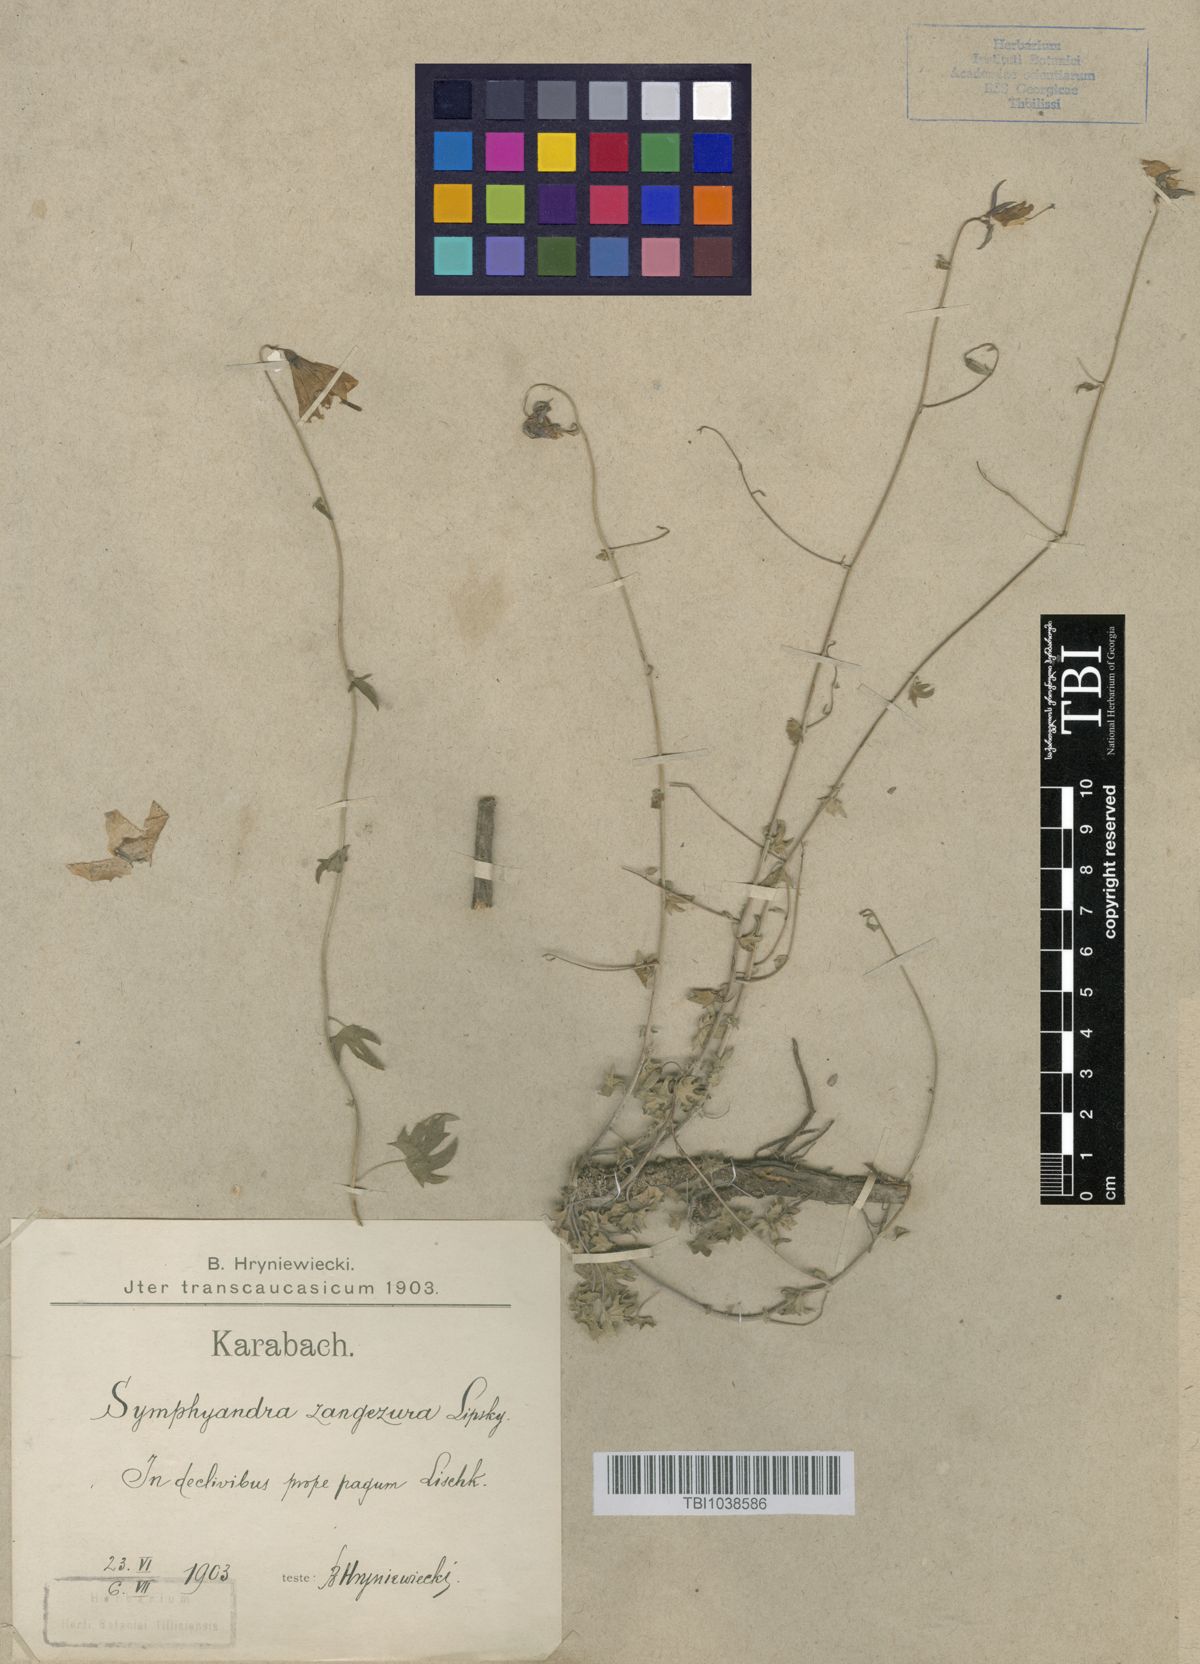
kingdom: Plantae
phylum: Tracheophyta
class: Magnoliopsida
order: Asterales
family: Campanulaceae
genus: Campanula
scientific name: Campanula zangezura
